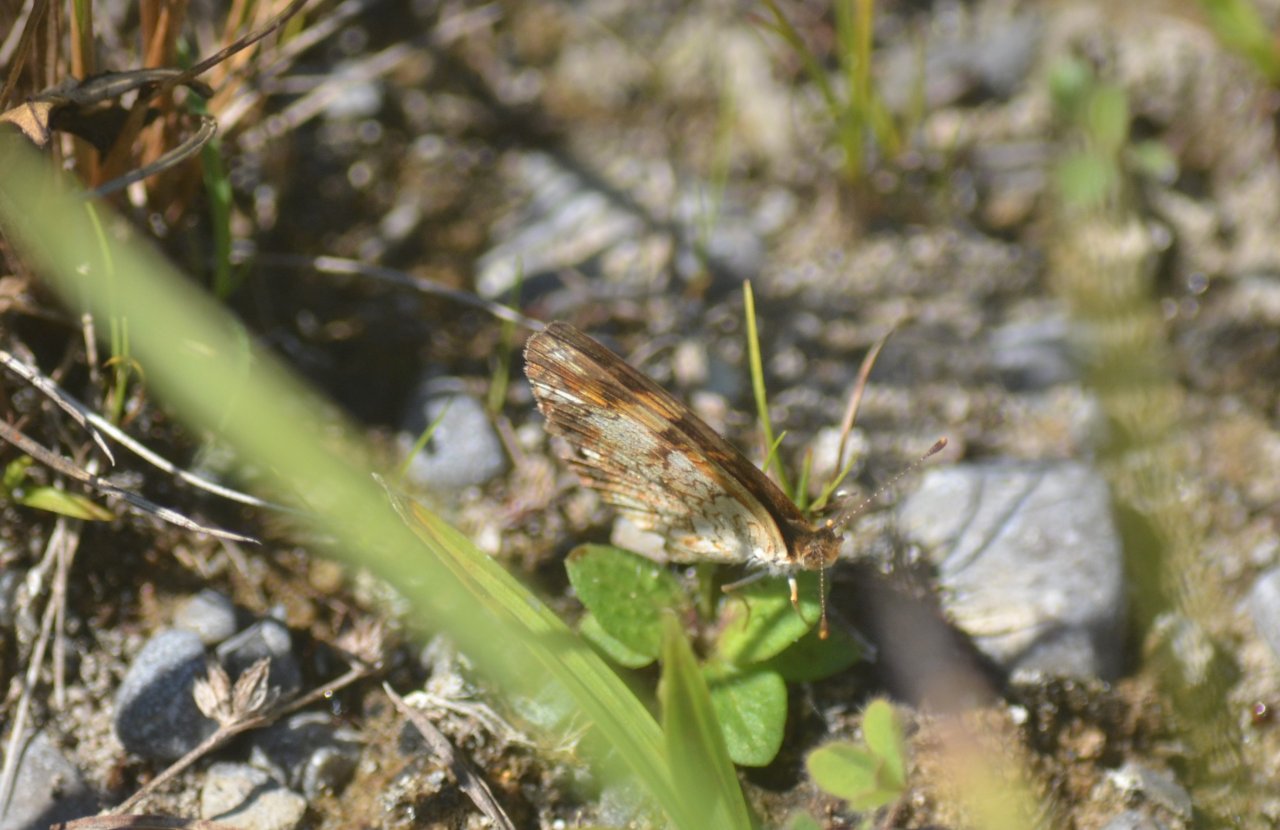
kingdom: Animalia
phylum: Arthropoda
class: Insecta
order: Lepidoptera
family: Nymphalidae
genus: Phyciodes
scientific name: Phyciodes tharos
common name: Pearl Crescent
